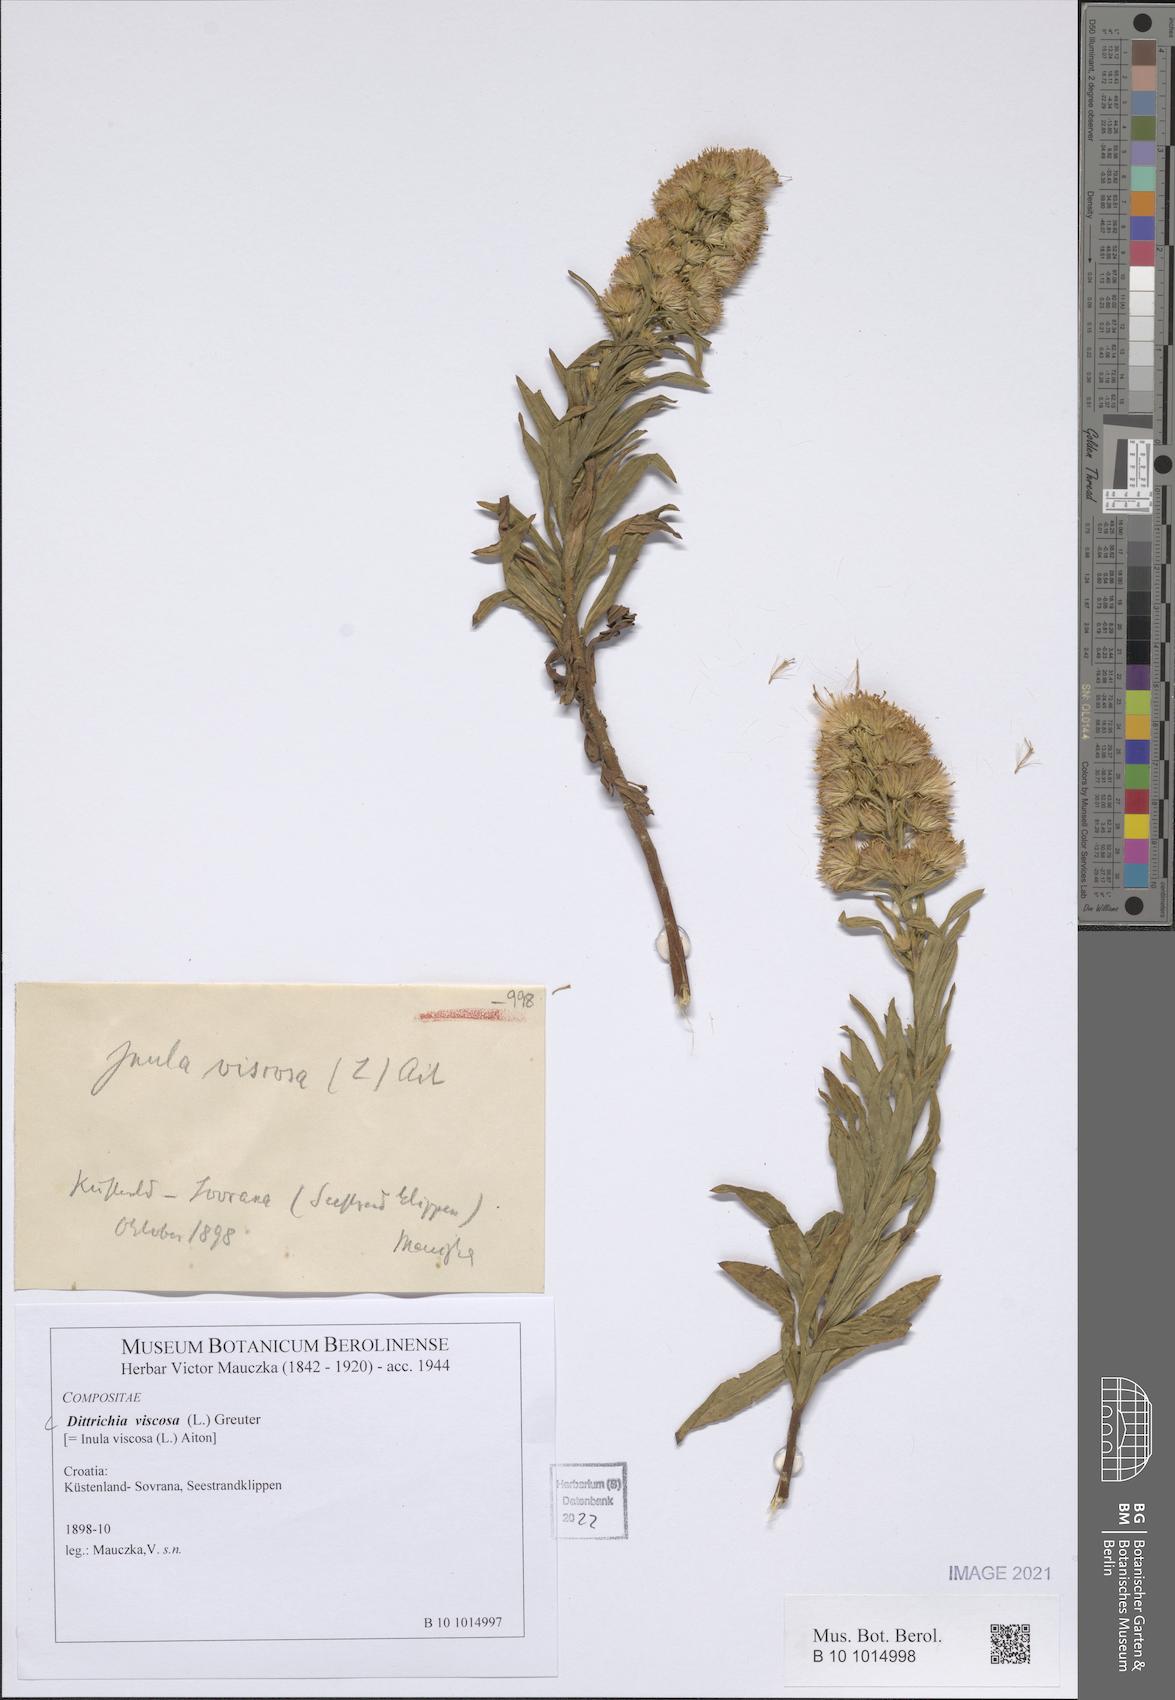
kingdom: Plantae
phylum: Tracheophyta
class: Magnoliopsida
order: Asterales
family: Asteraceae
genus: Dittrichia
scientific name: Dittrichia viscosa
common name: Woody fleabane
